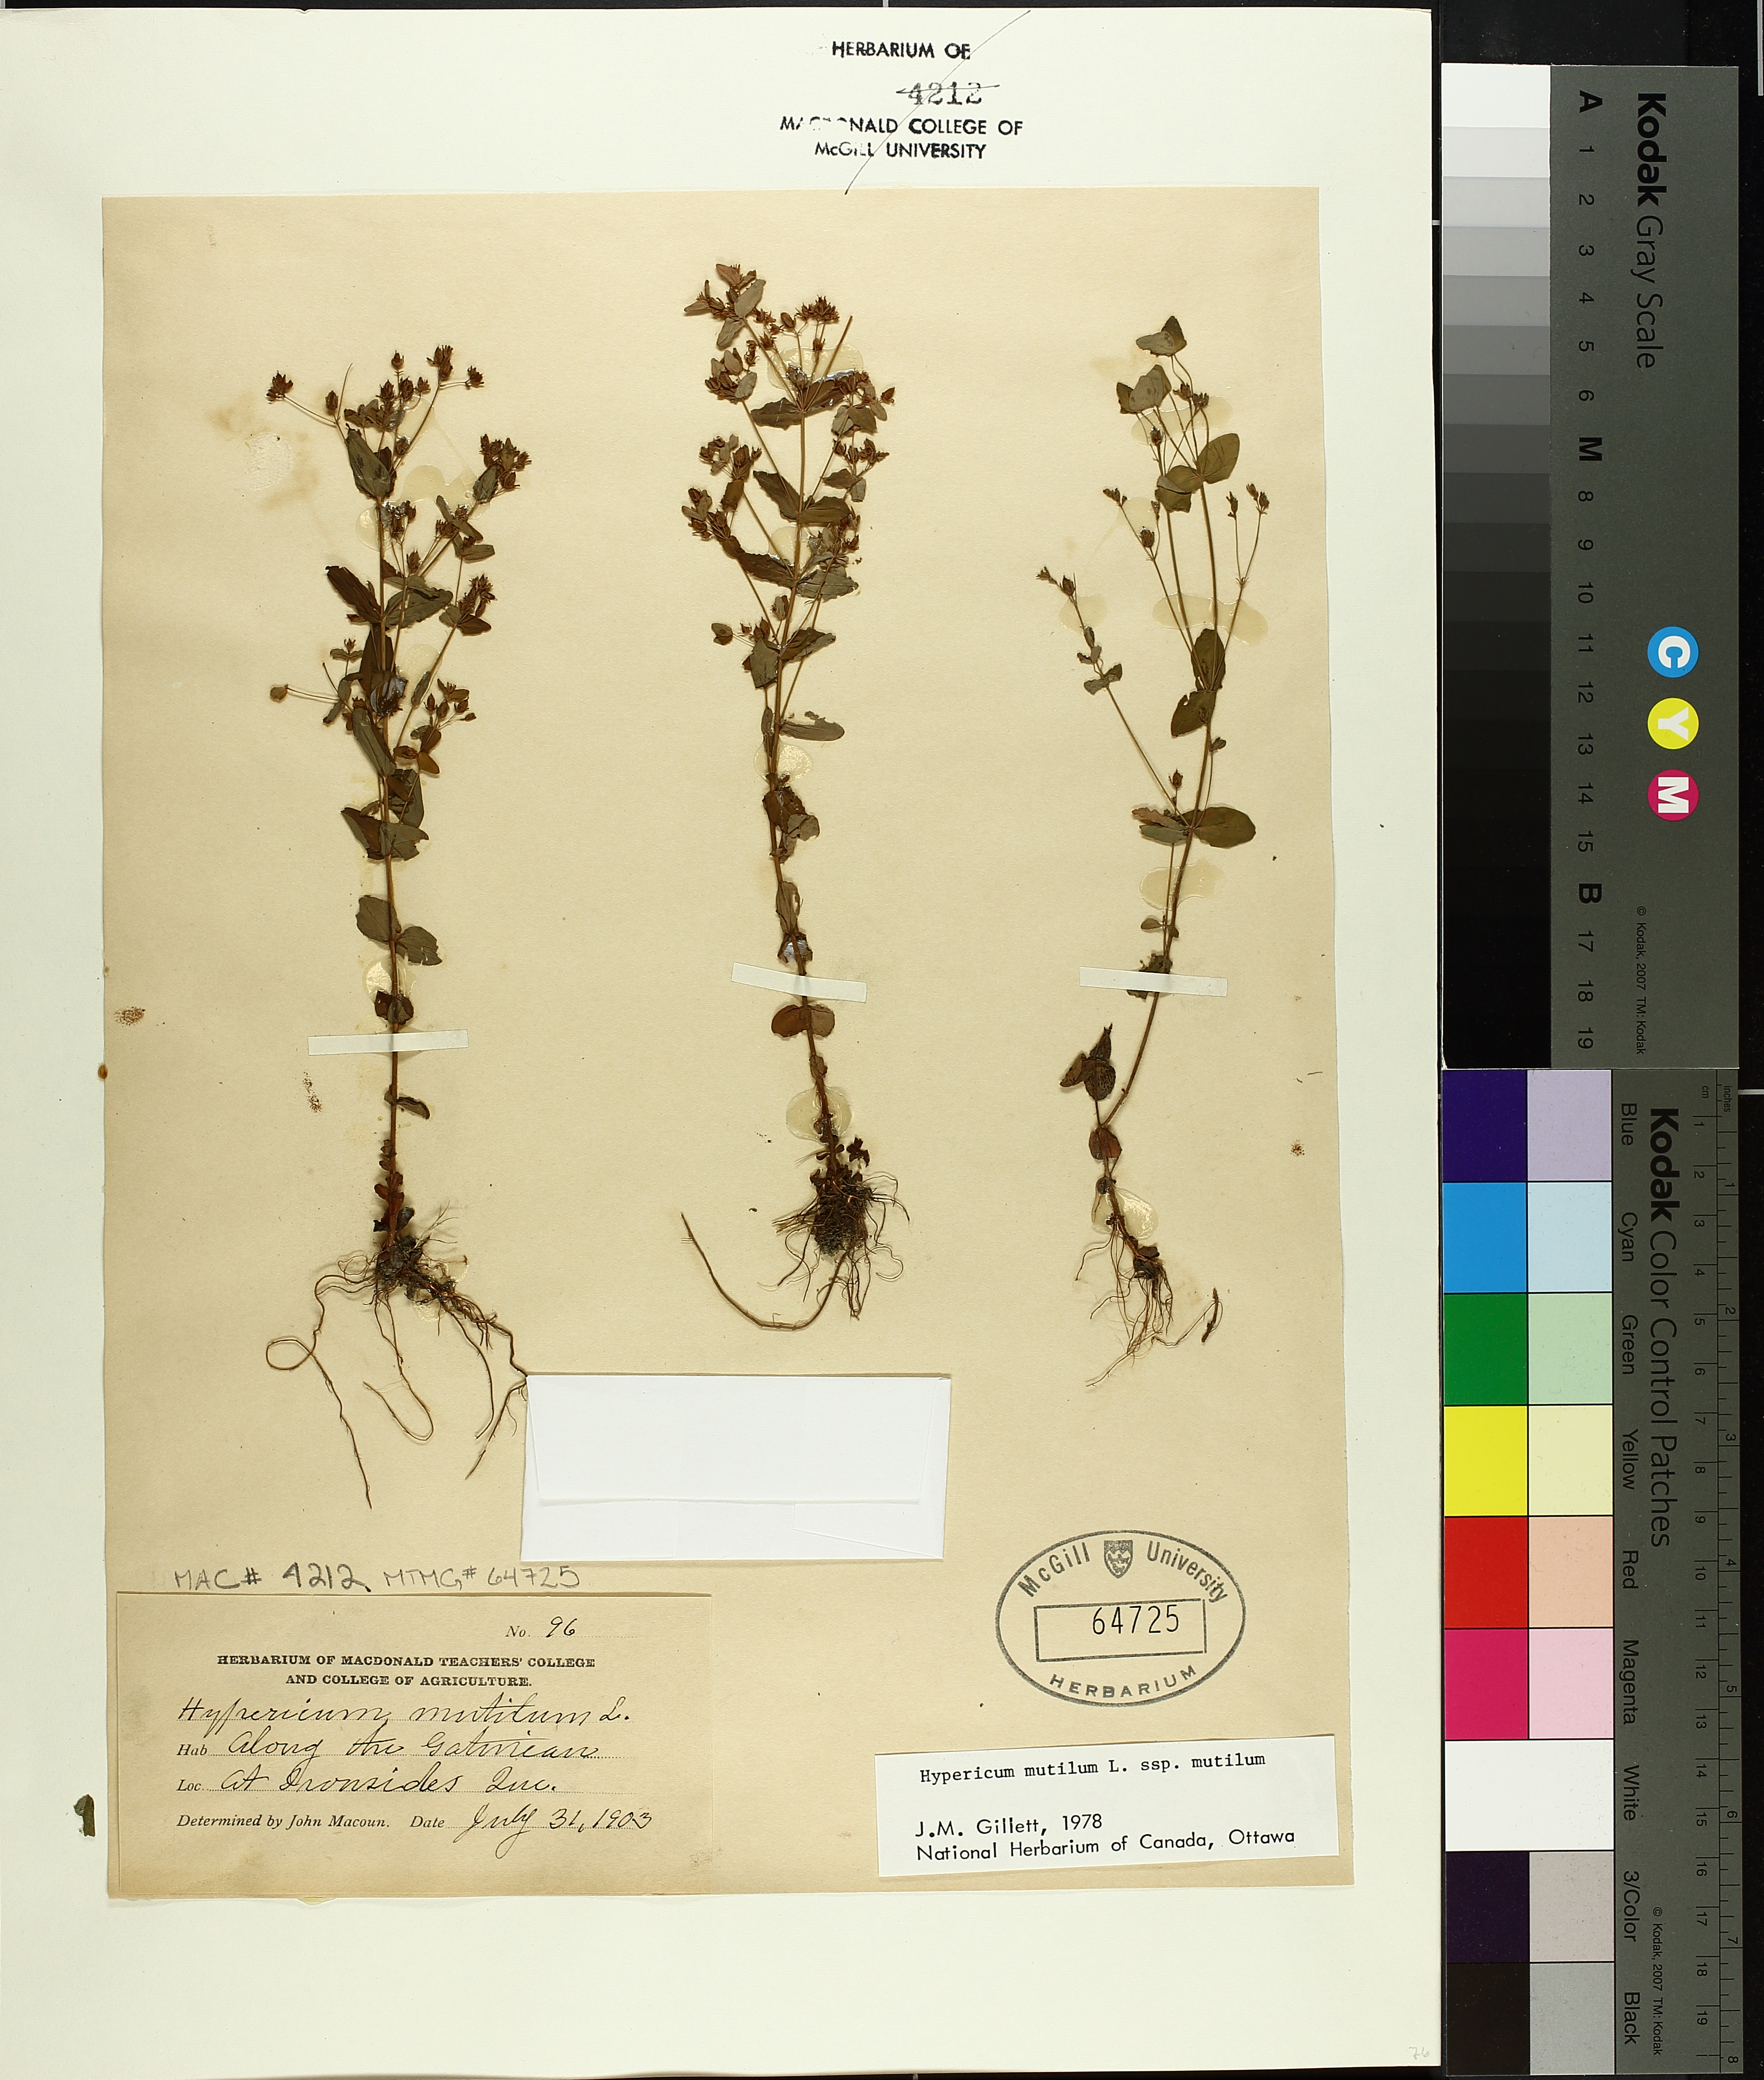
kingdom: Plantae
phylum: Tracheophyta
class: Magnoliopsida
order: Malpighiales
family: Hypericaceae
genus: Hypericum
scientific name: Hypericum mutilum
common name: Dwarf st. john's-wort
